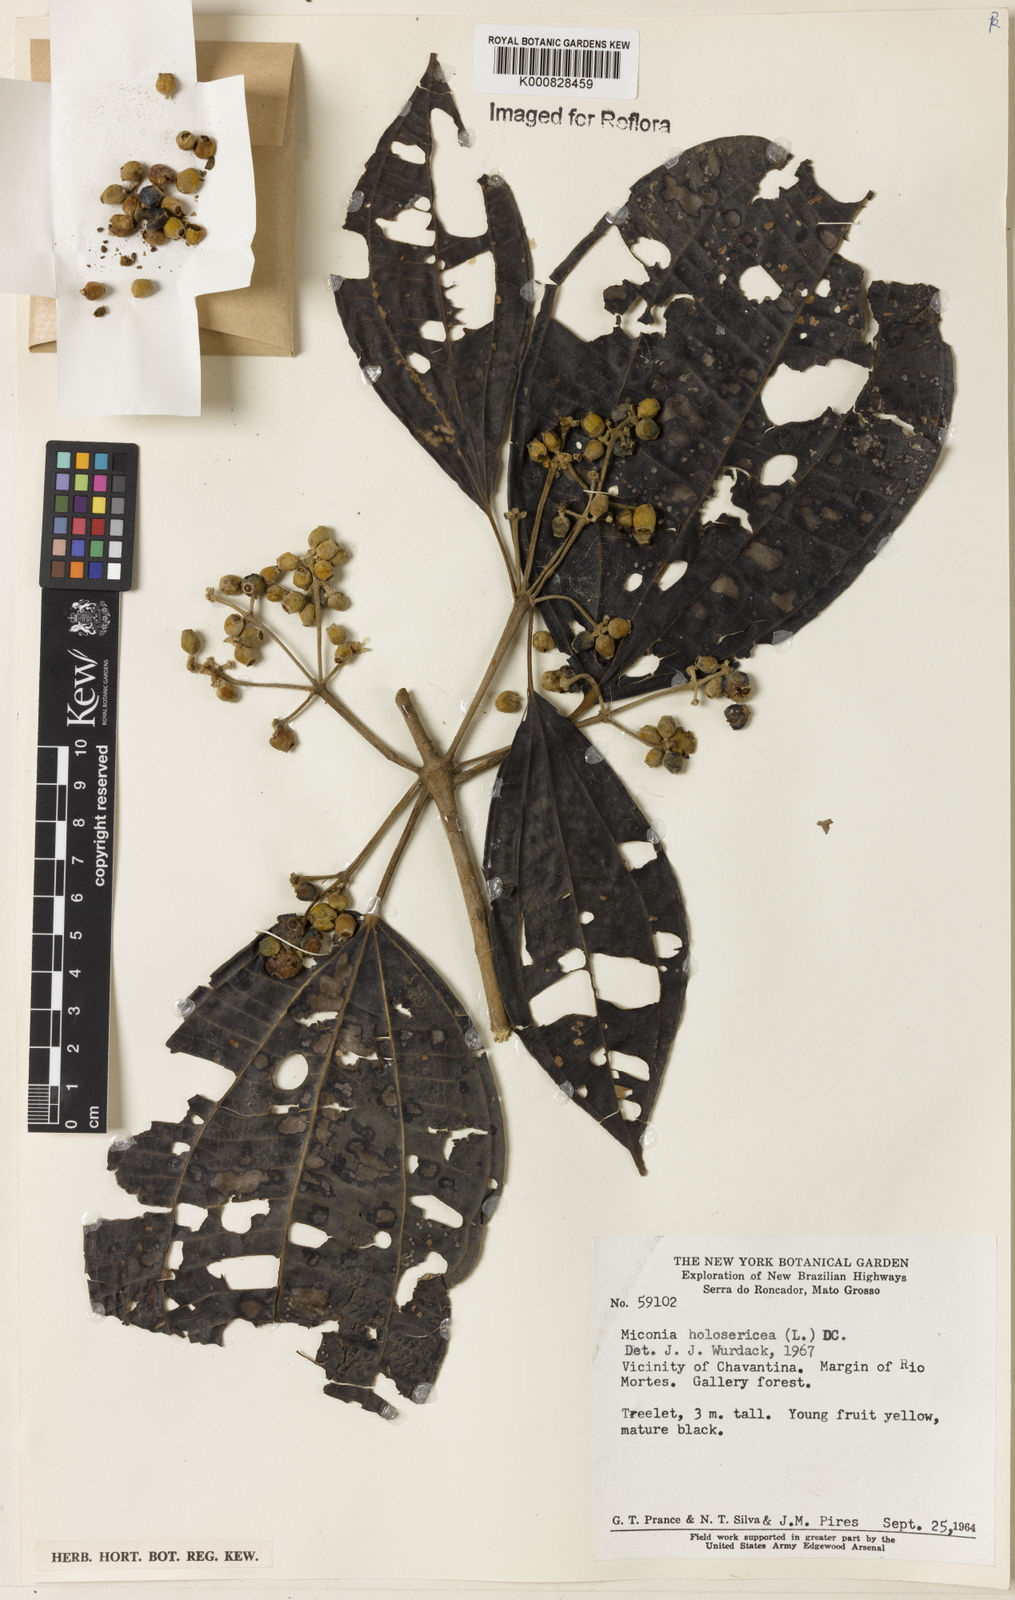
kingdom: Plantae
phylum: Tracheophyta
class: Magnoliopsida
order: Myrtales
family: Melastomataceae
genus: Miconia
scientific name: Miconia holosericea
